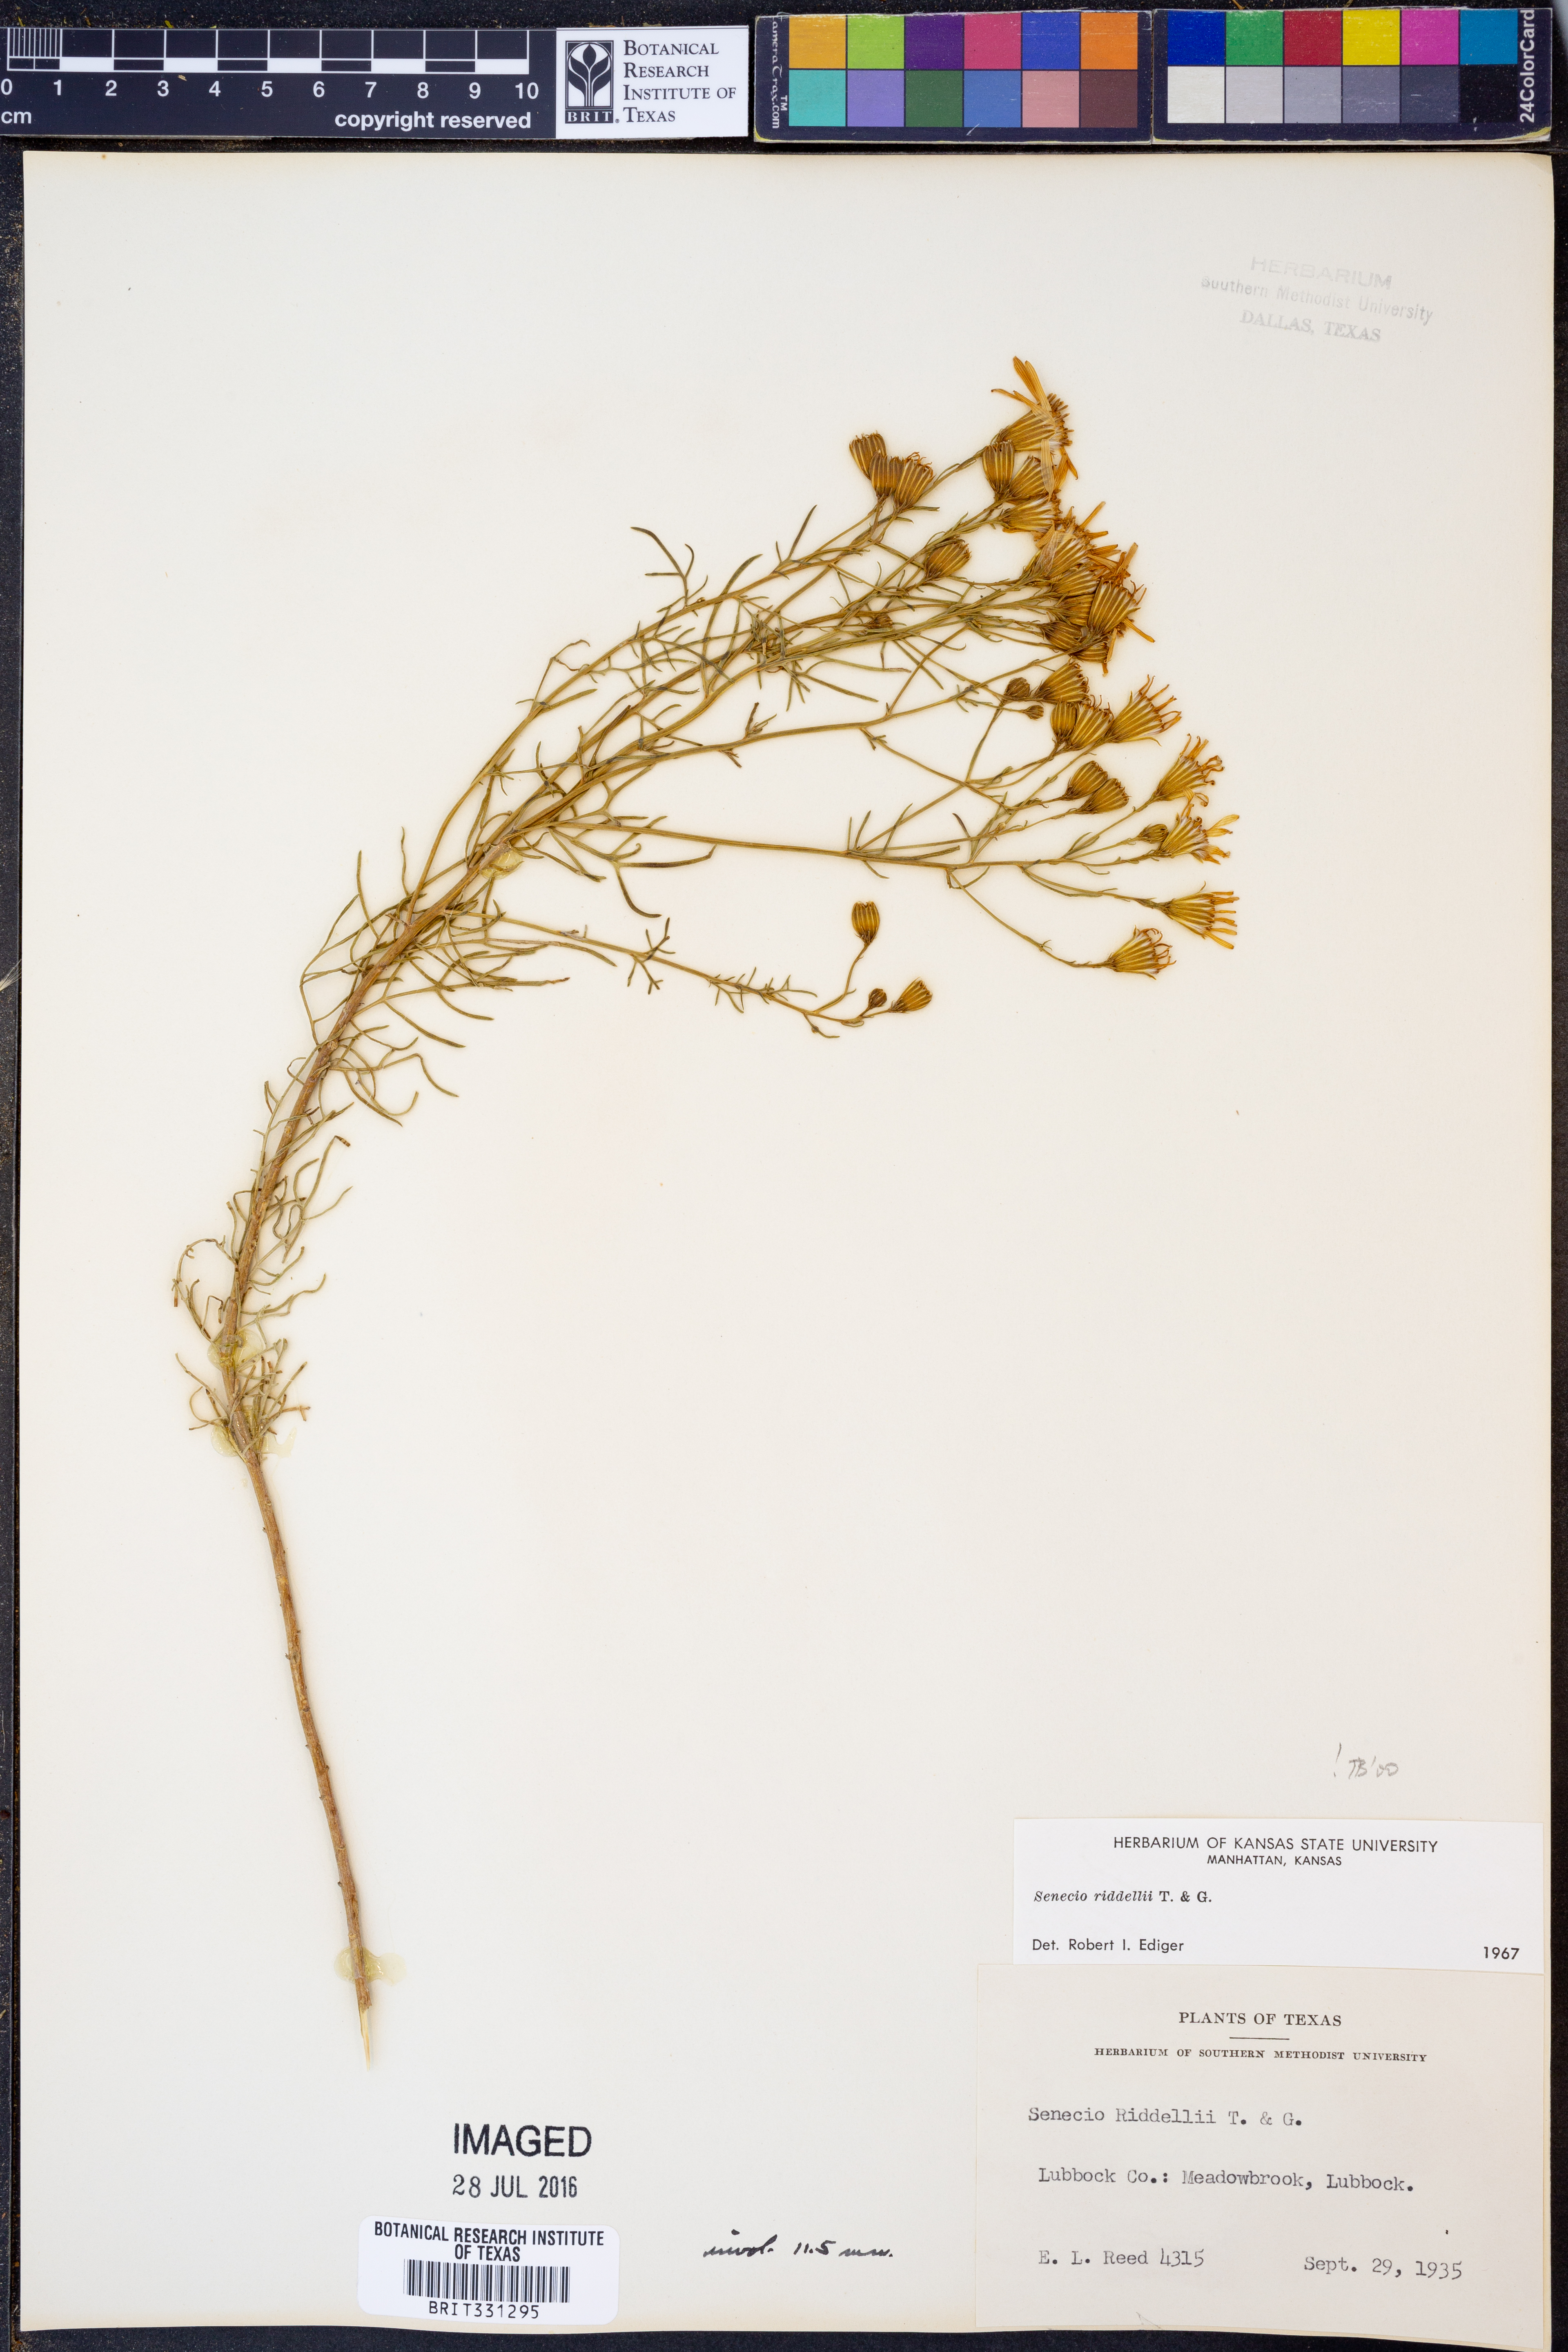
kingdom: Plantae
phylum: Tracheophyta
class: Magnoliopsida
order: Asterales
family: Asteraceae
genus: Senecio
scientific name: Senecio riddellii
